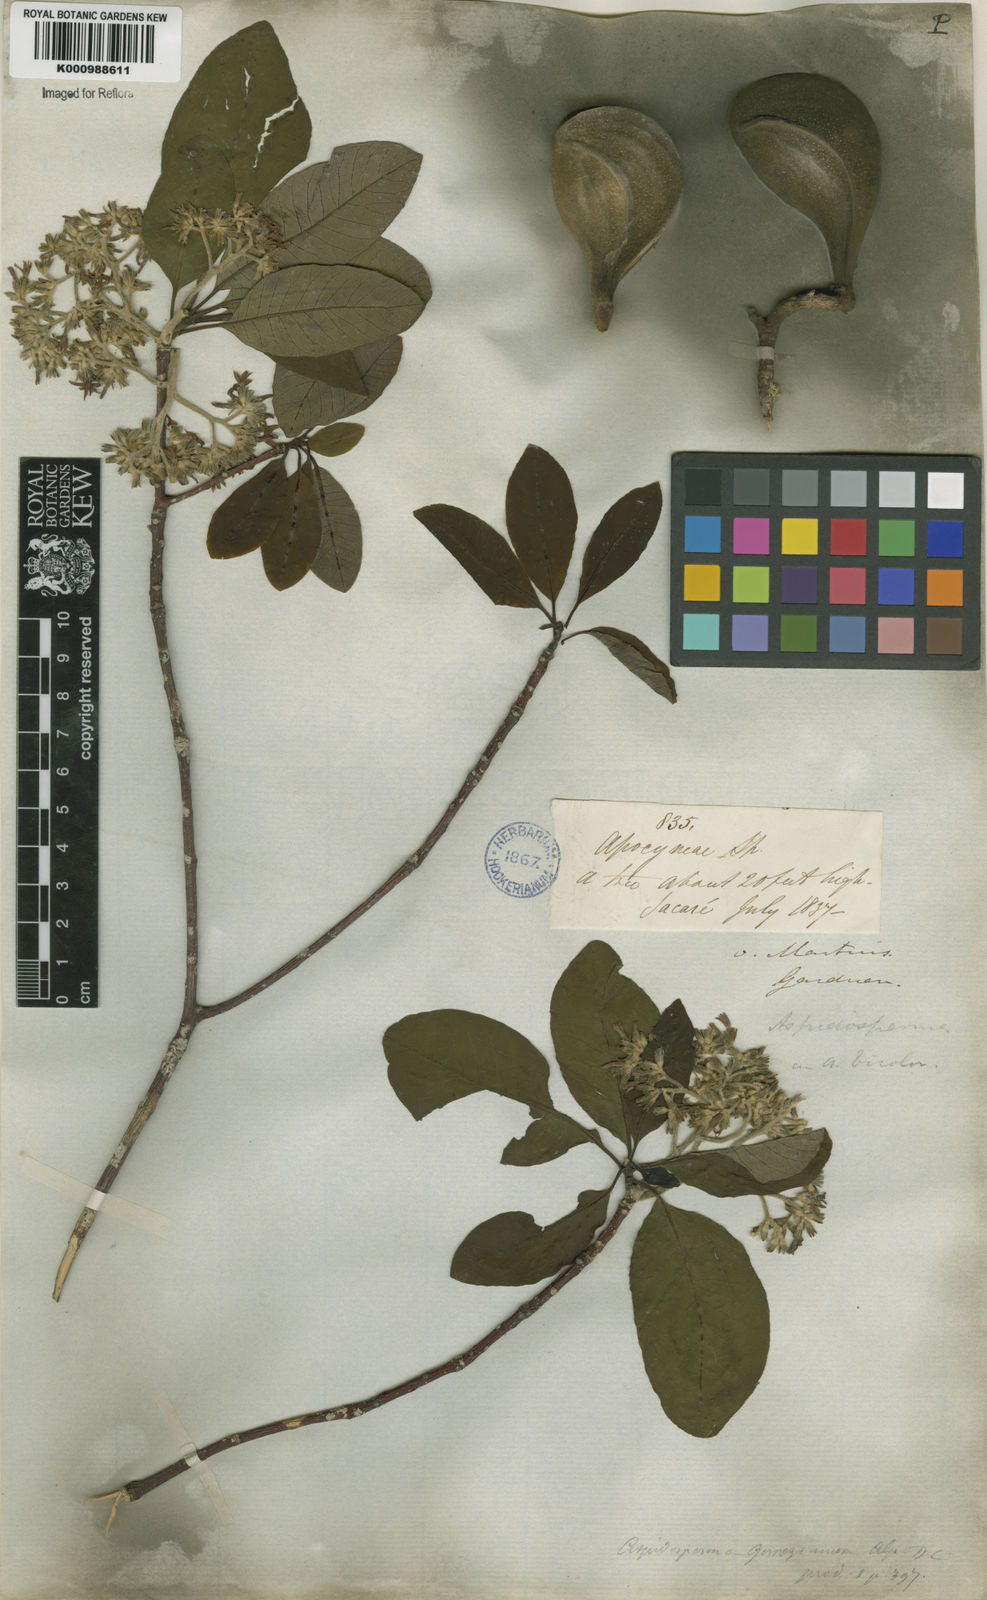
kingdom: Plantae
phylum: Tracheophyta
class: Magnoliopsida
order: Gentianales
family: Apocynaceae
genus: Aspidosperma
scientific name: Aspidosperma tomentosum
